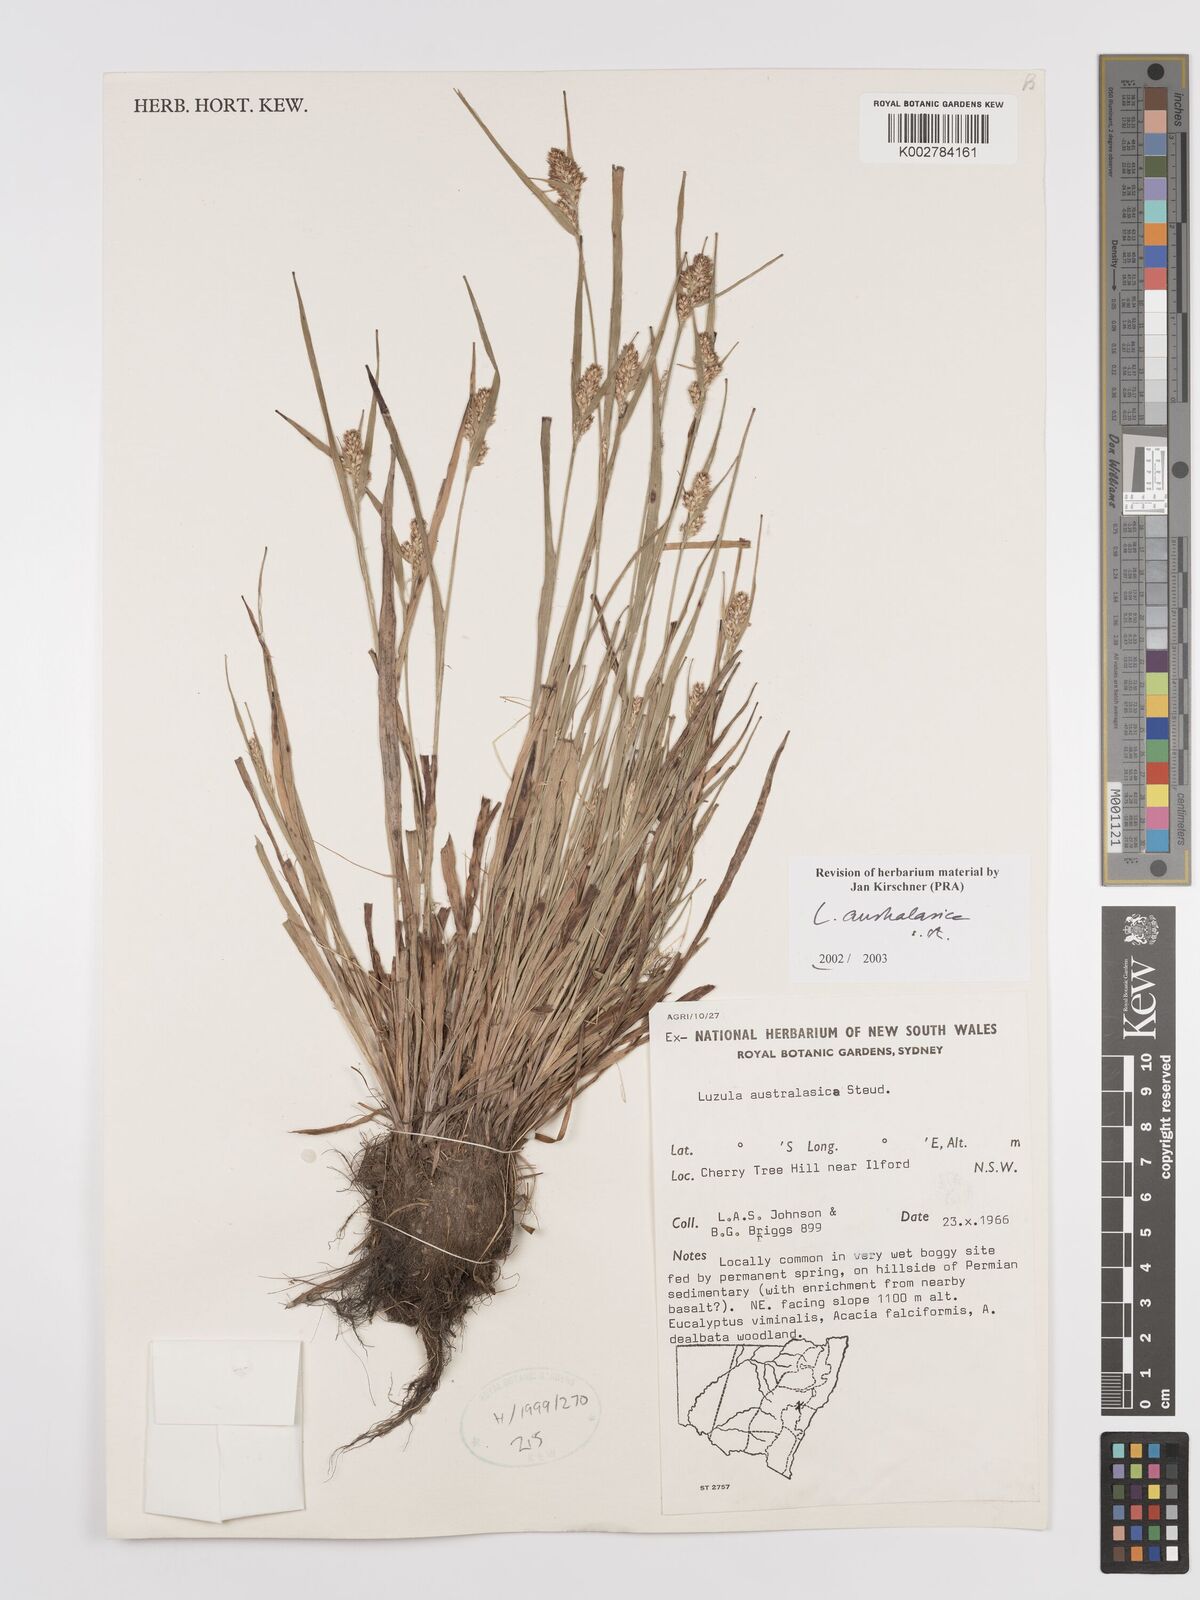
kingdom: Plantae
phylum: Tracheophyta
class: Liliopsida
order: Poales
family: Juncaceae
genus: Luzula
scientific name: Luzula australasica
